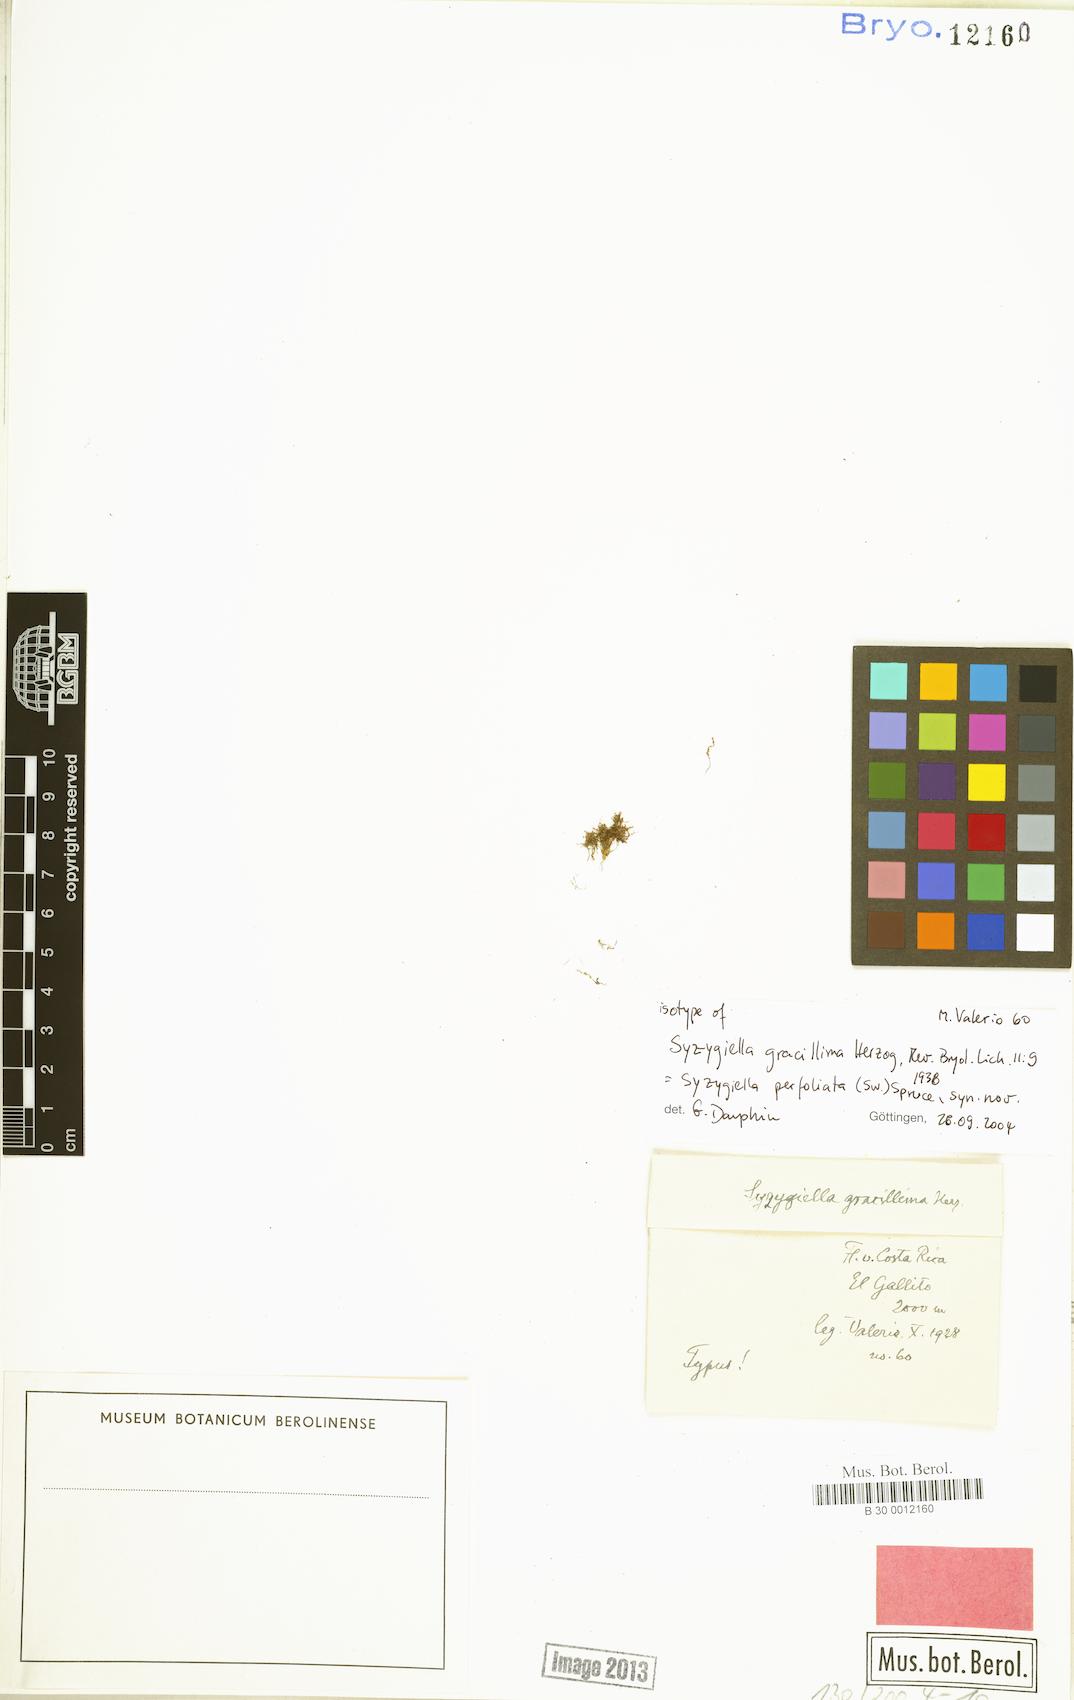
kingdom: Plantae
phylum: Marchantiophyta
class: Jungermanniopsida
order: Jungermanniales
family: Adelanthaceae
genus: Syzygiella
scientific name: Syzygiella perfoliata
